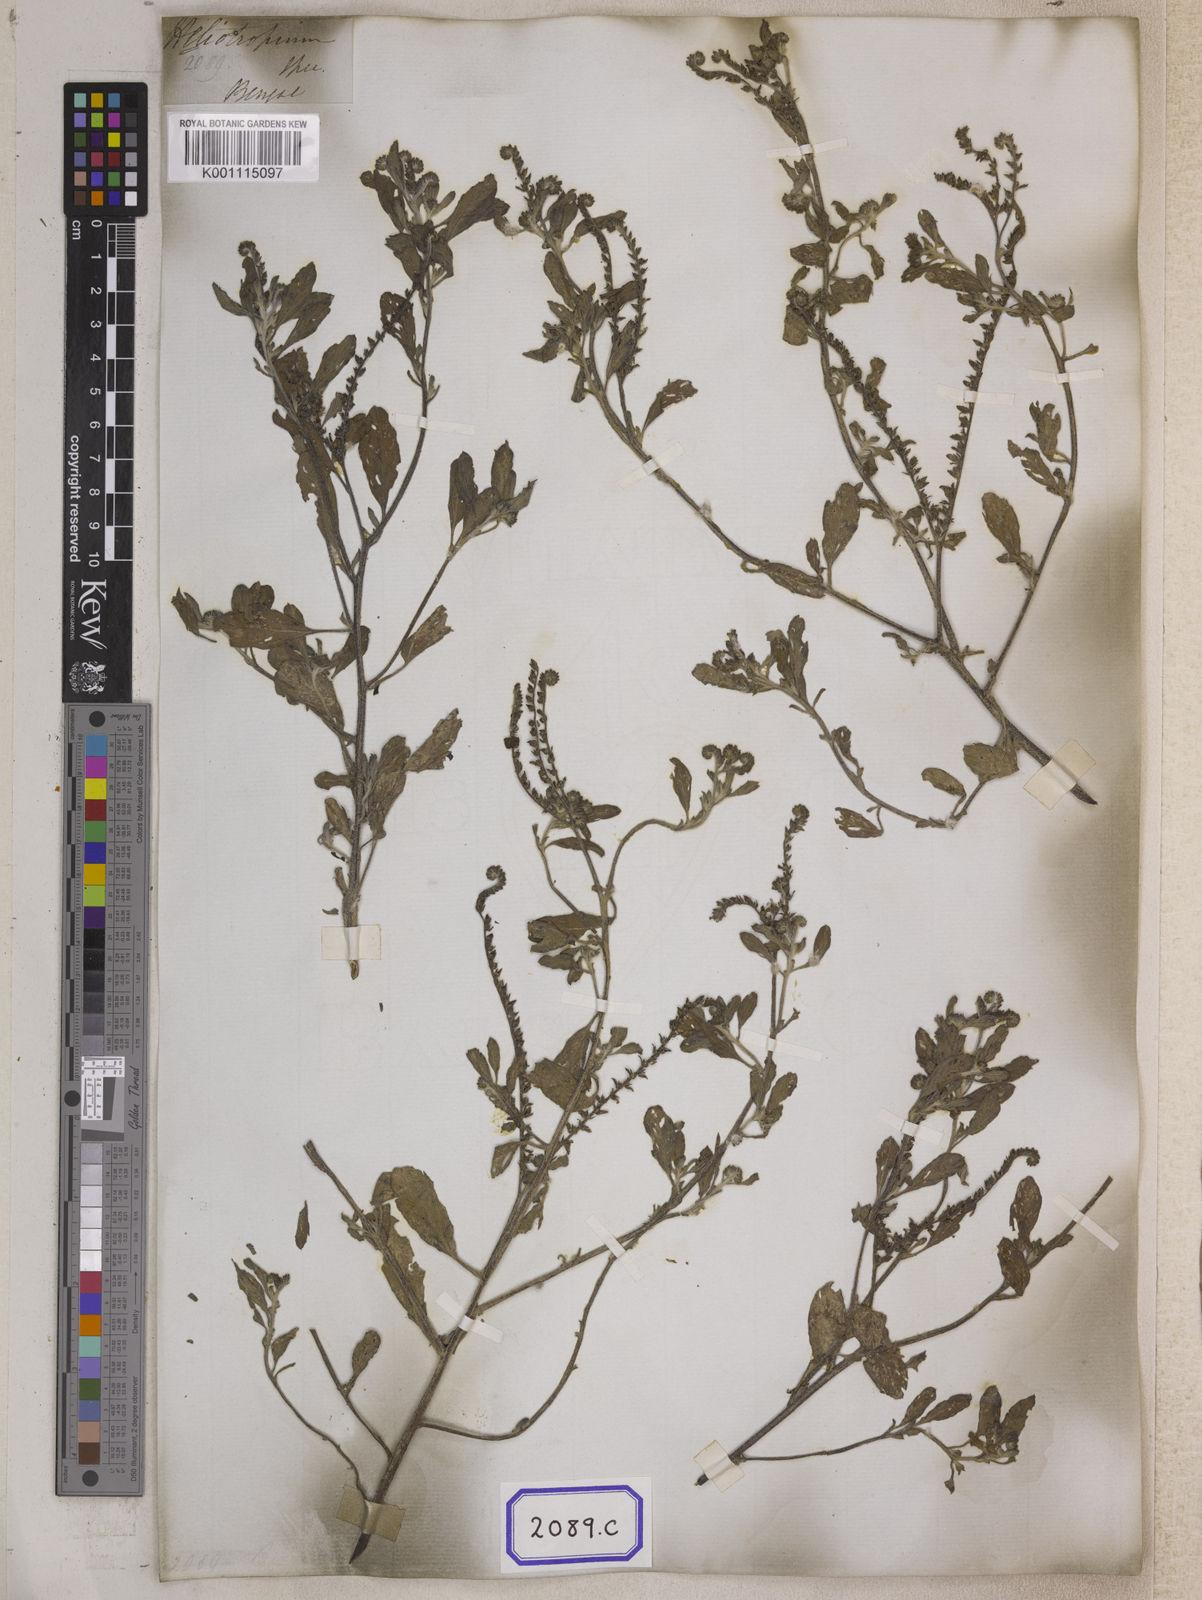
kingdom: Plantae
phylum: Tracheophyta
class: Magnoliopsida
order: Boraginales
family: Heliotropiaceae
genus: Euploca
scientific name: Euploca ovalifolia
